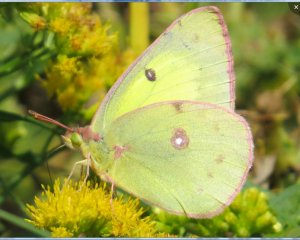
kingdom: Animalia
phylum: Arthropoda
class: Insecta
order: Lepidoptera
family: Pieridae
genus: Colias
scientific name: Colias philodice
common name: Clouded Sulphur
